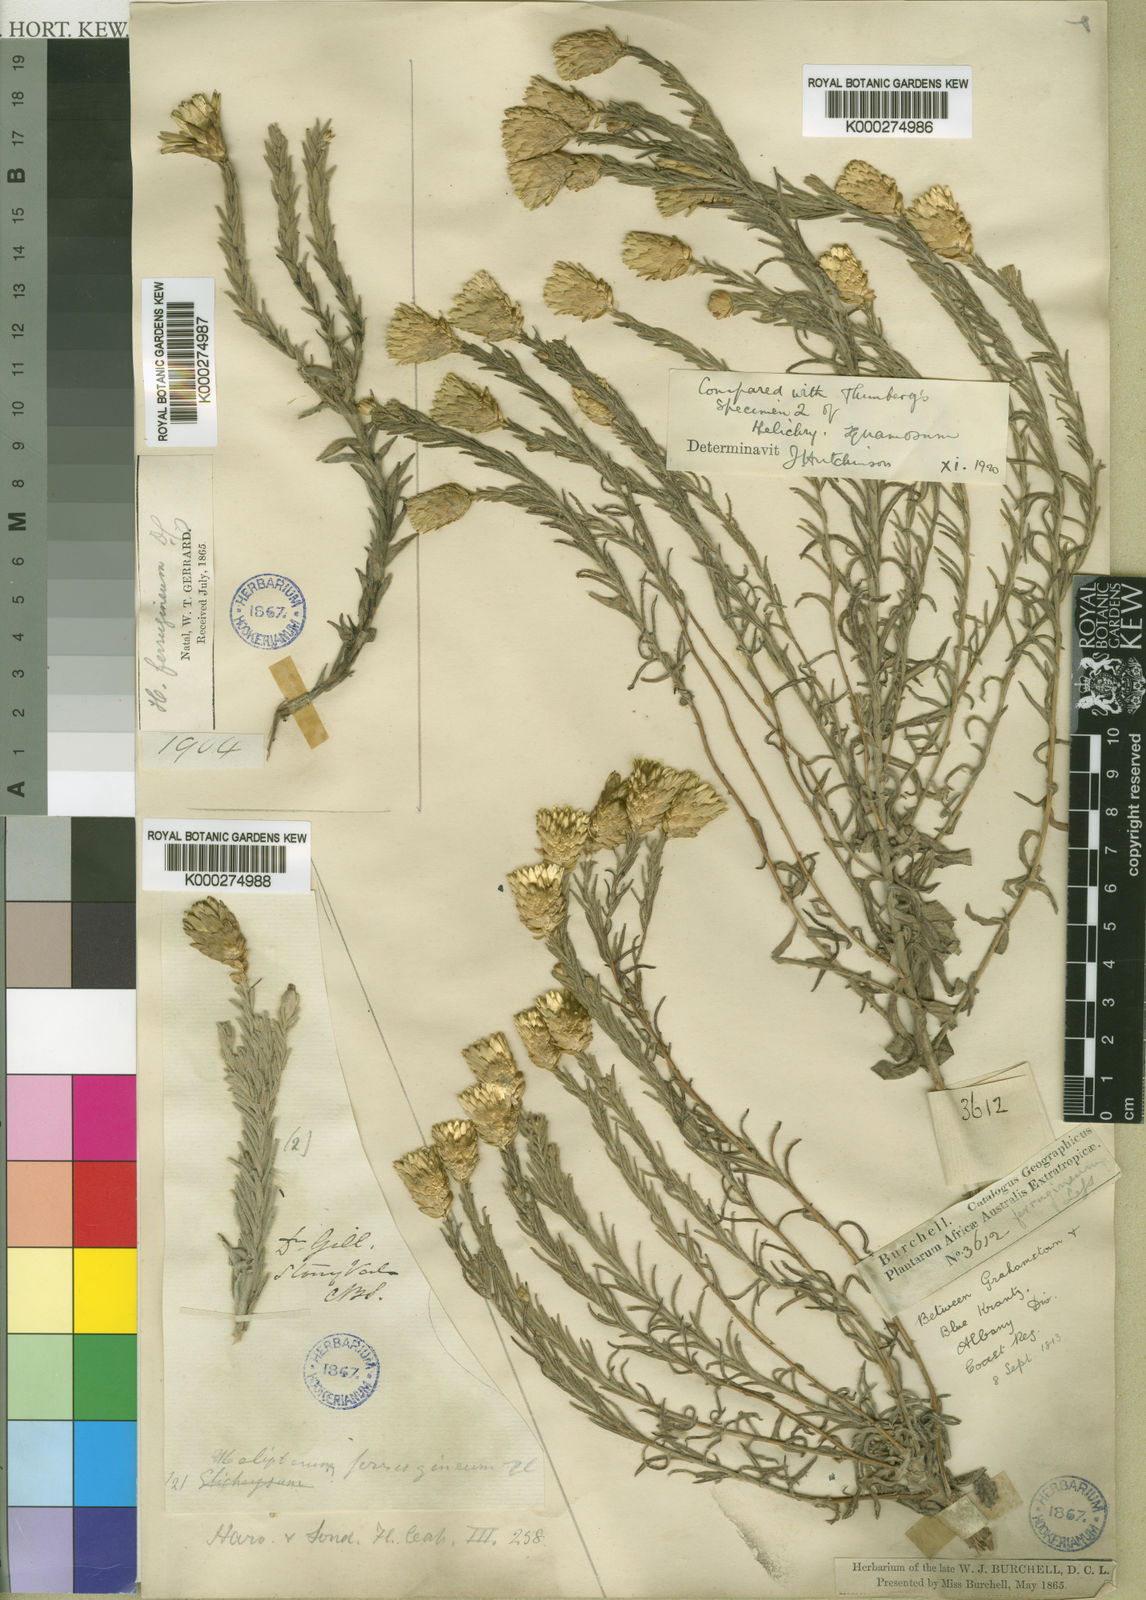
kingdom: Plantae
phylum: Tracheophyta
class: Magnoliopsida
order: Asterales
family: Asteraceae
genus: Edmondia
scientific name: Edmondia pinifolia
